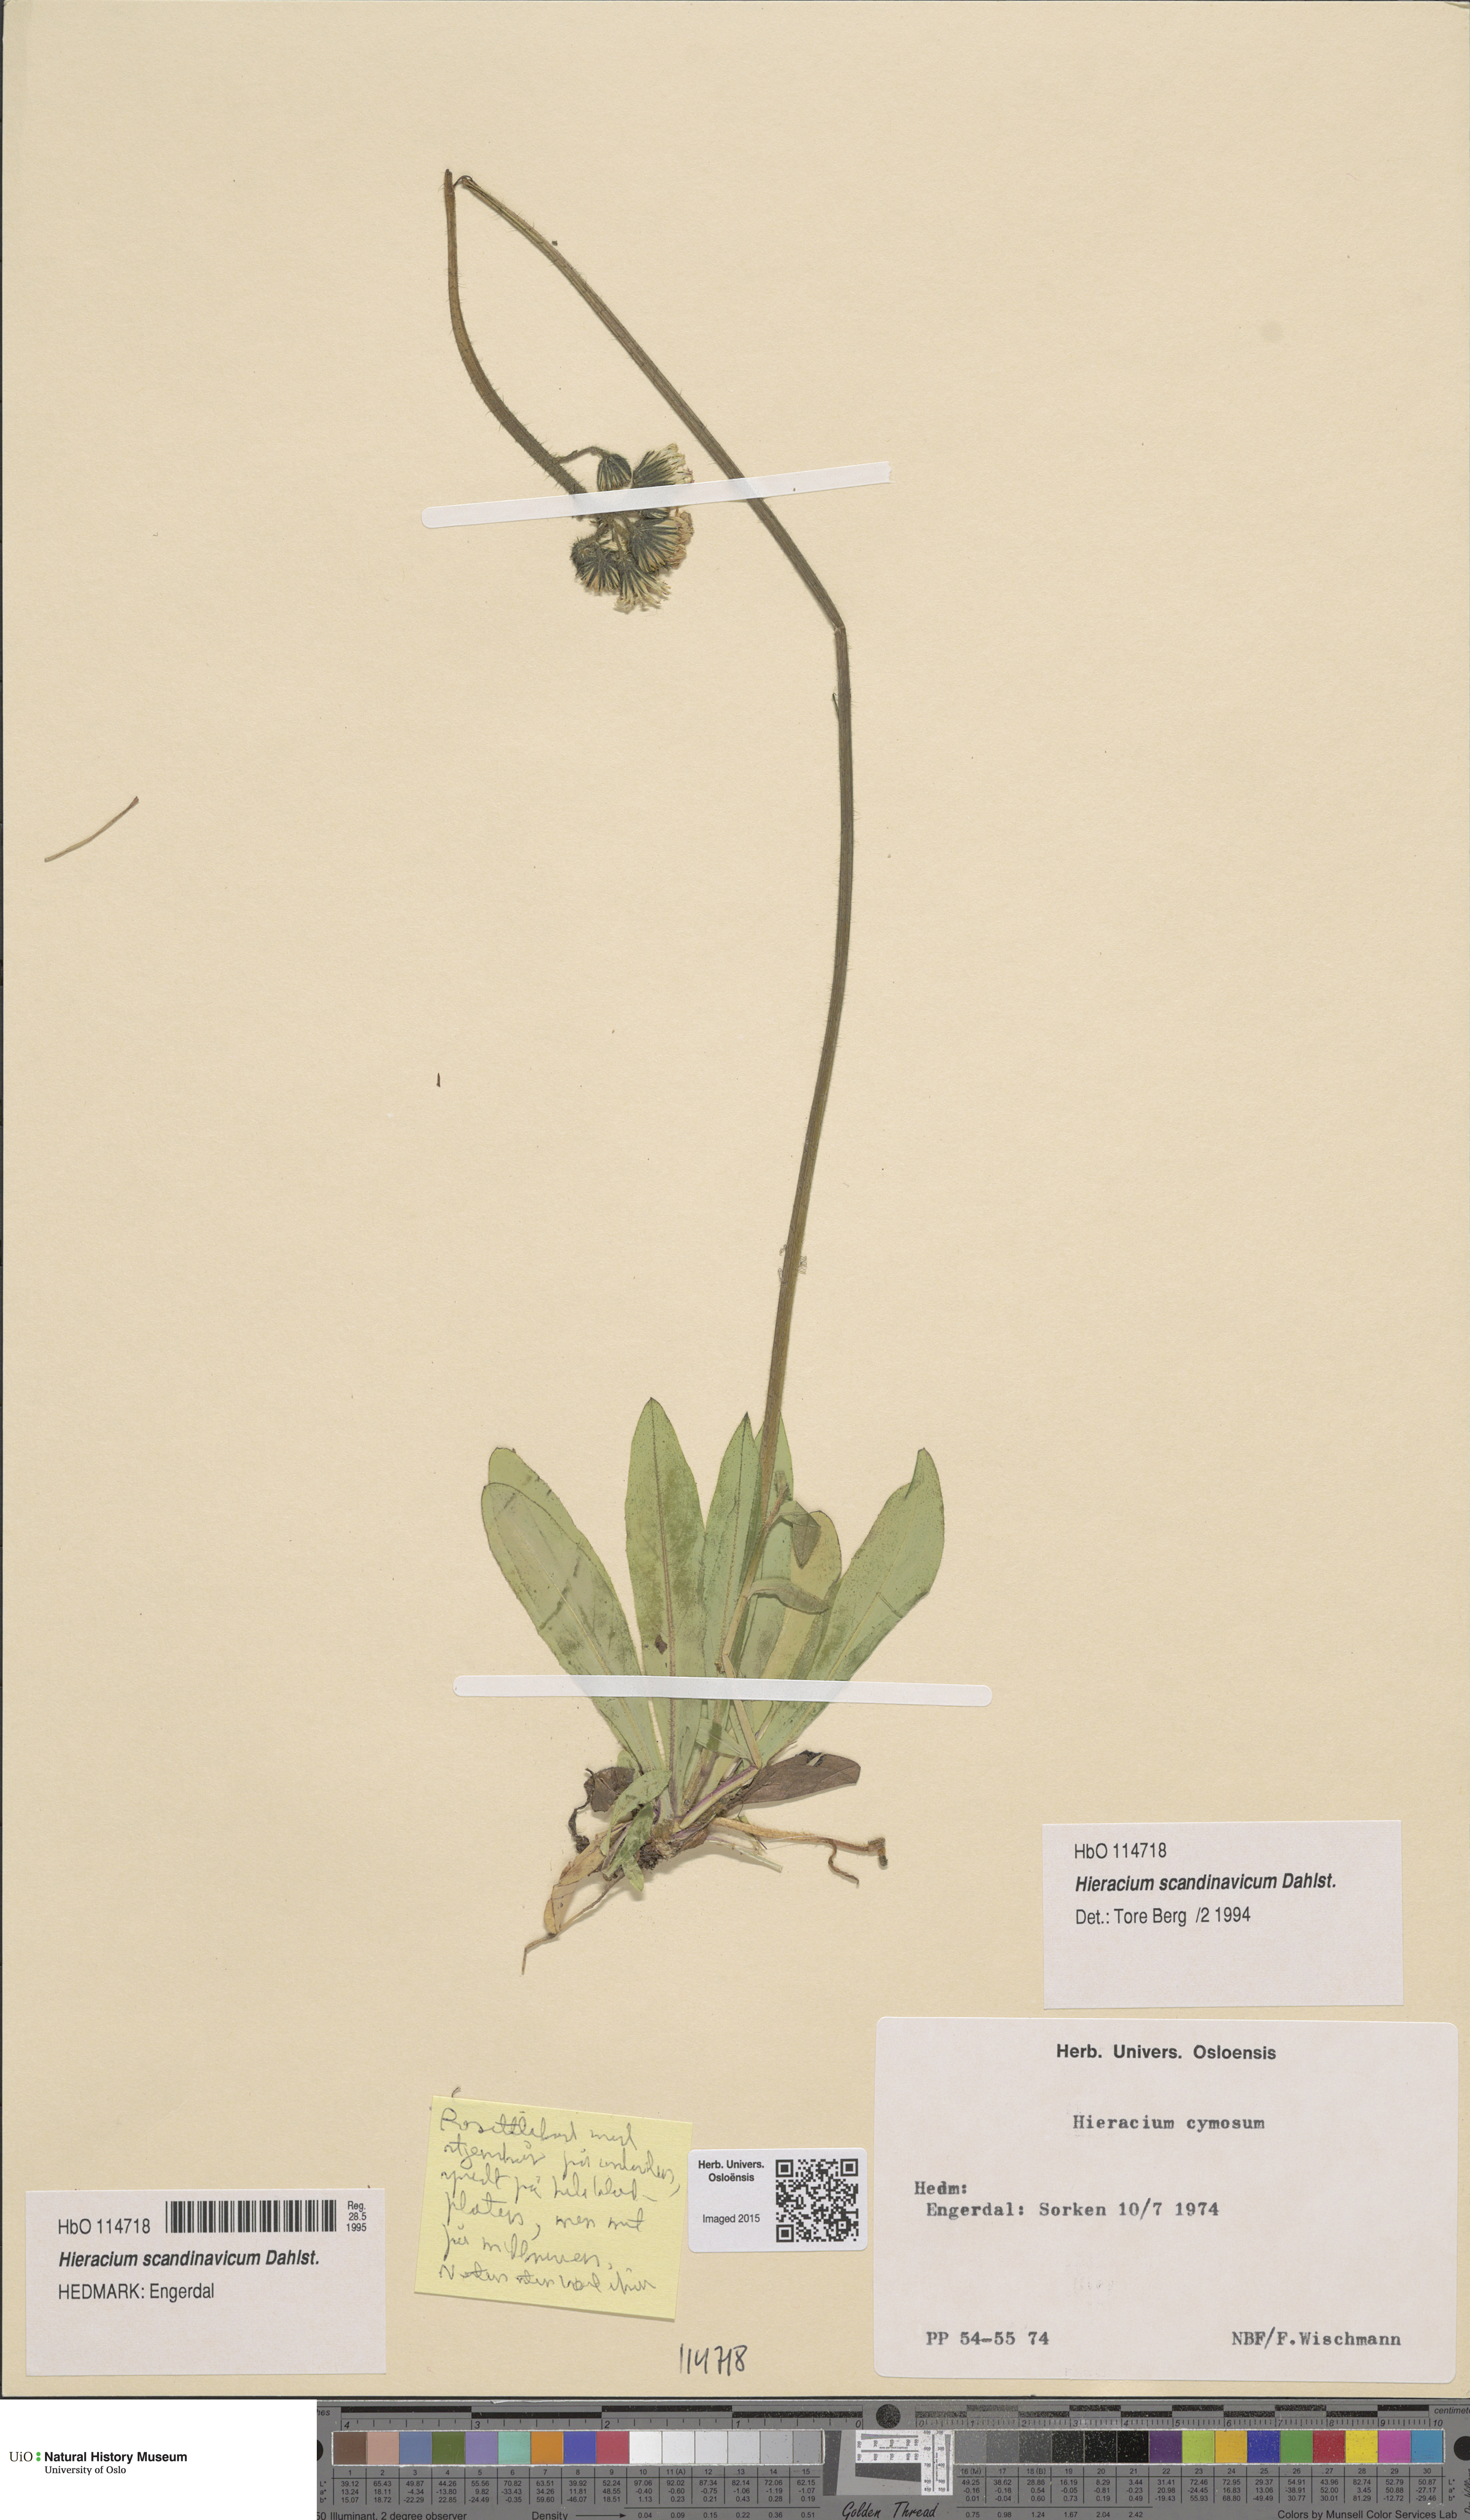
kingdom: Plantae
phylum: Tracheophyta
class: Magnoliopsida
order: Asterales
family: Asteraceae
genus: Pilosella
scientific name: Pilosella scandinavica
